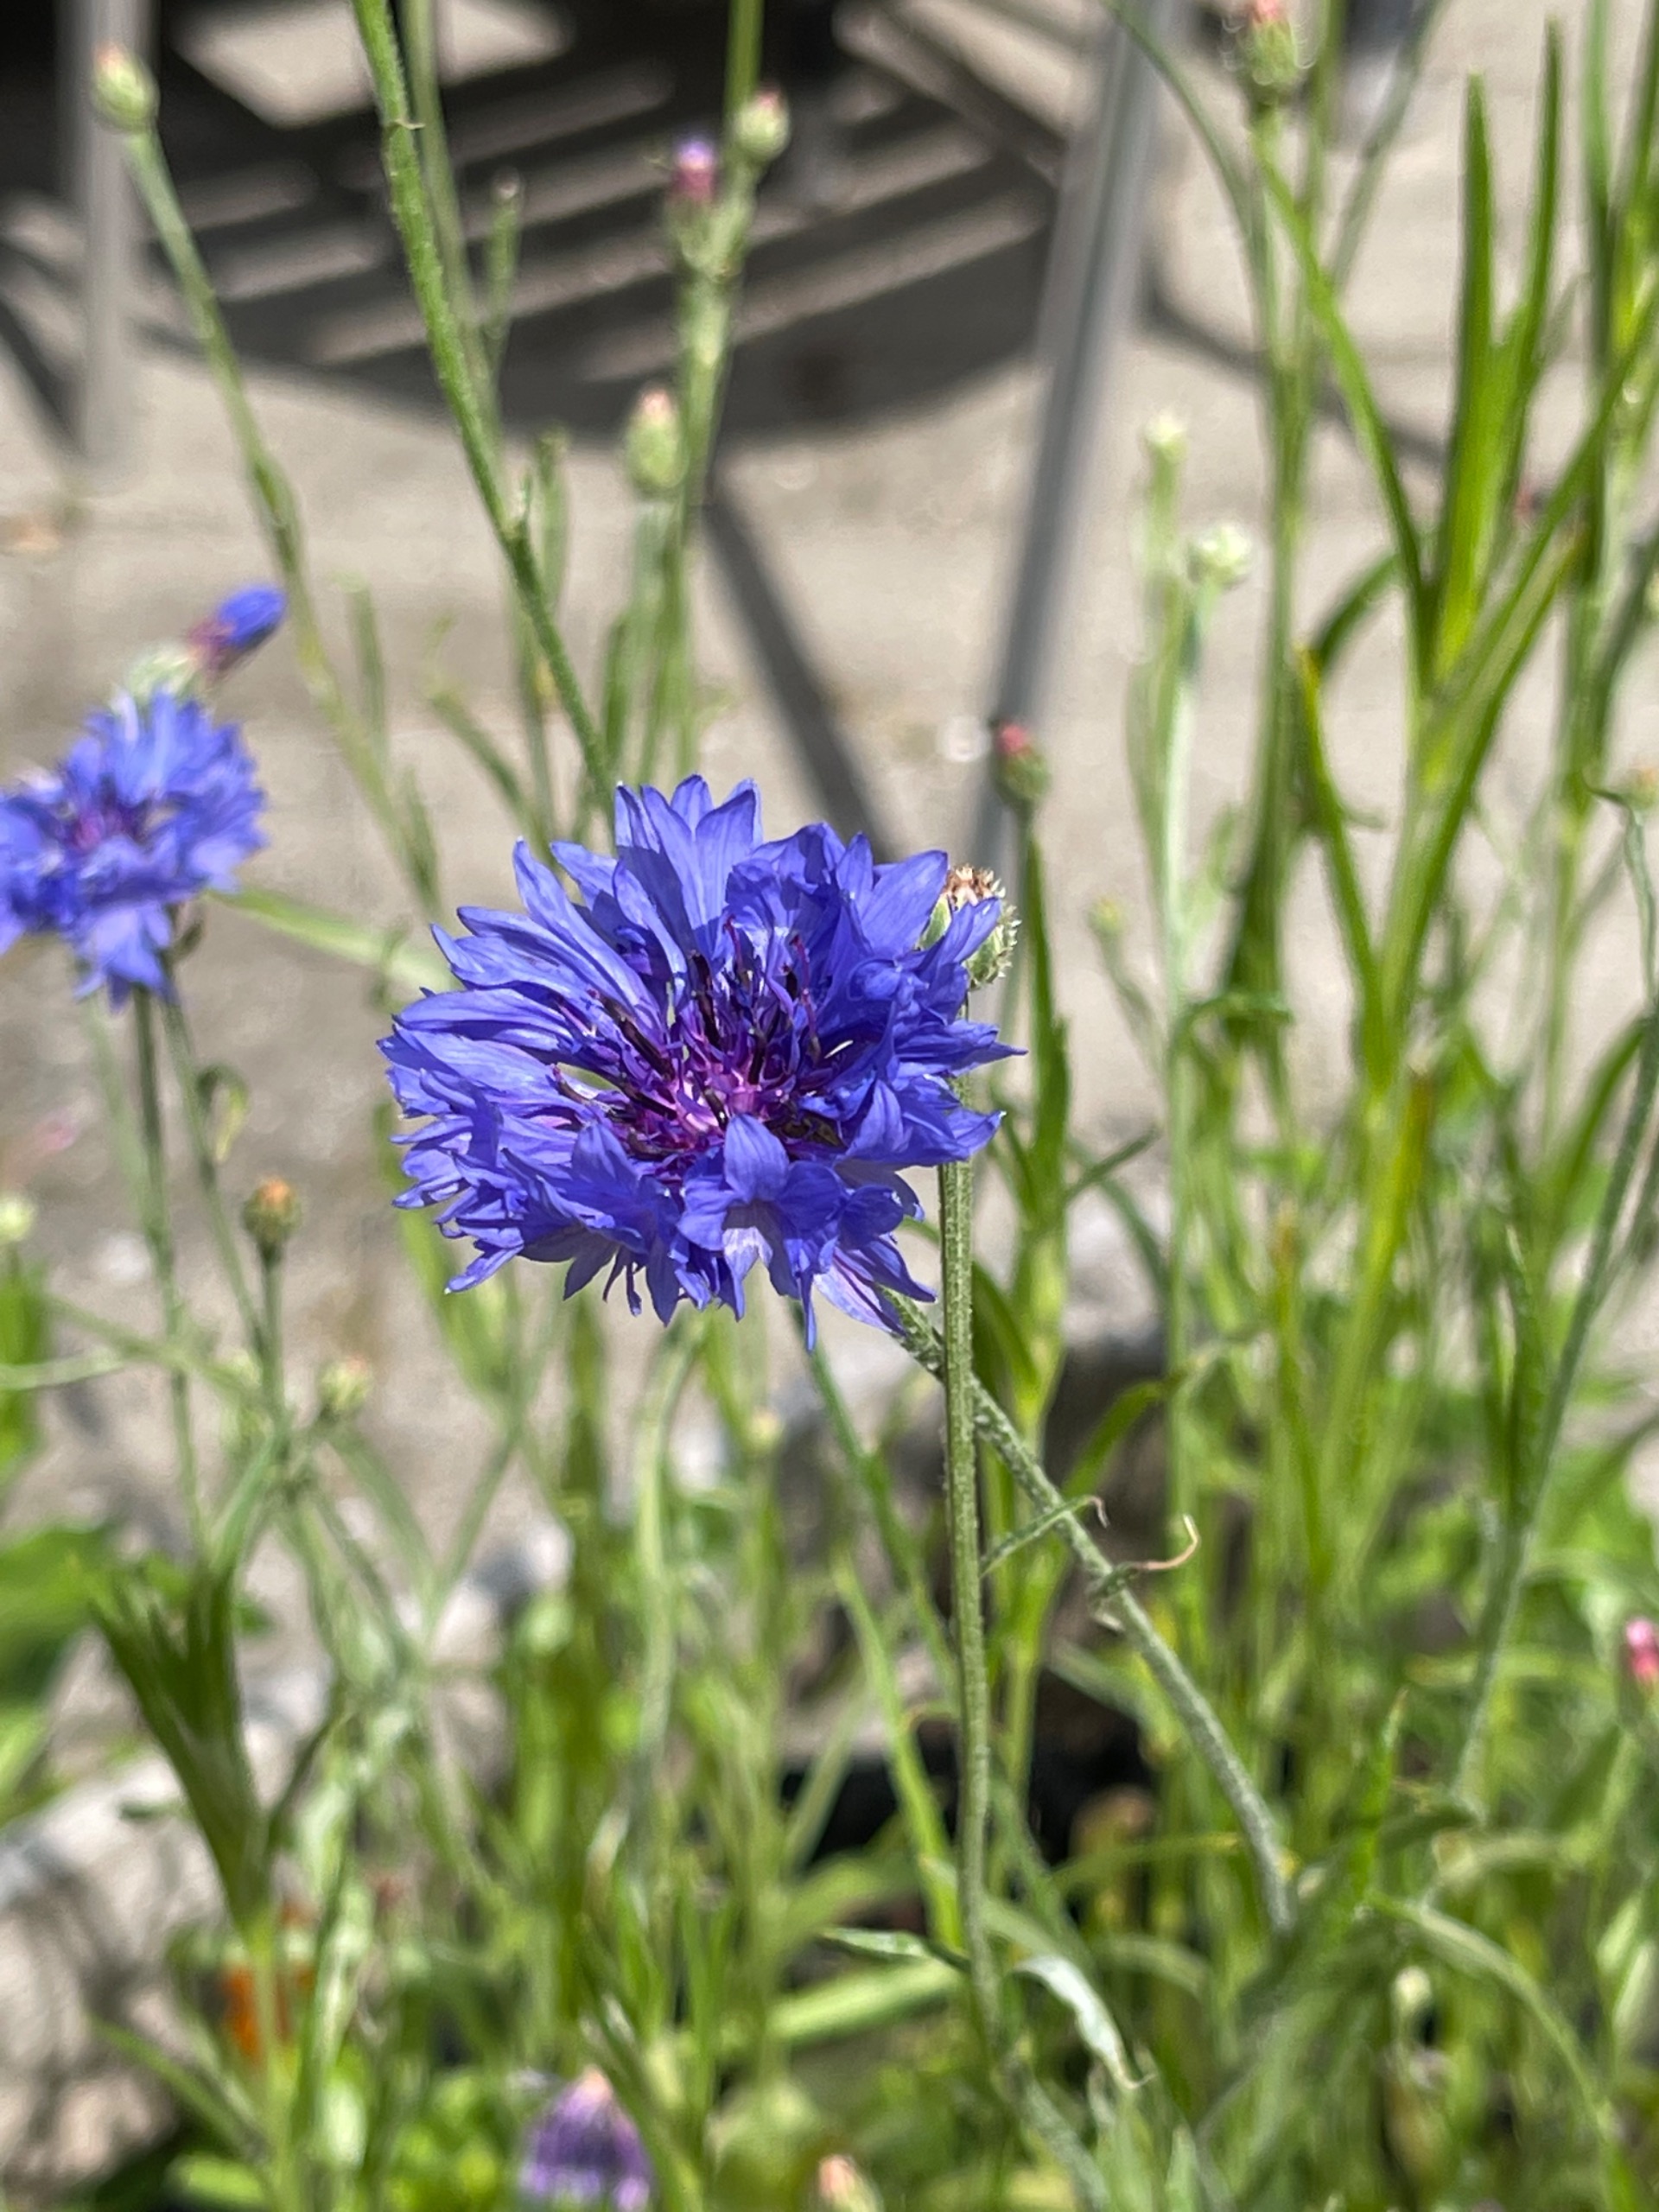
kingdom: Plantae
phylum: Tracheophyta
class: Magnoliopsida
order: Asterales
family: Asteraceae
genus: Centaurea
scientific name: Centaurea cyanus
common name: Kornblomst
